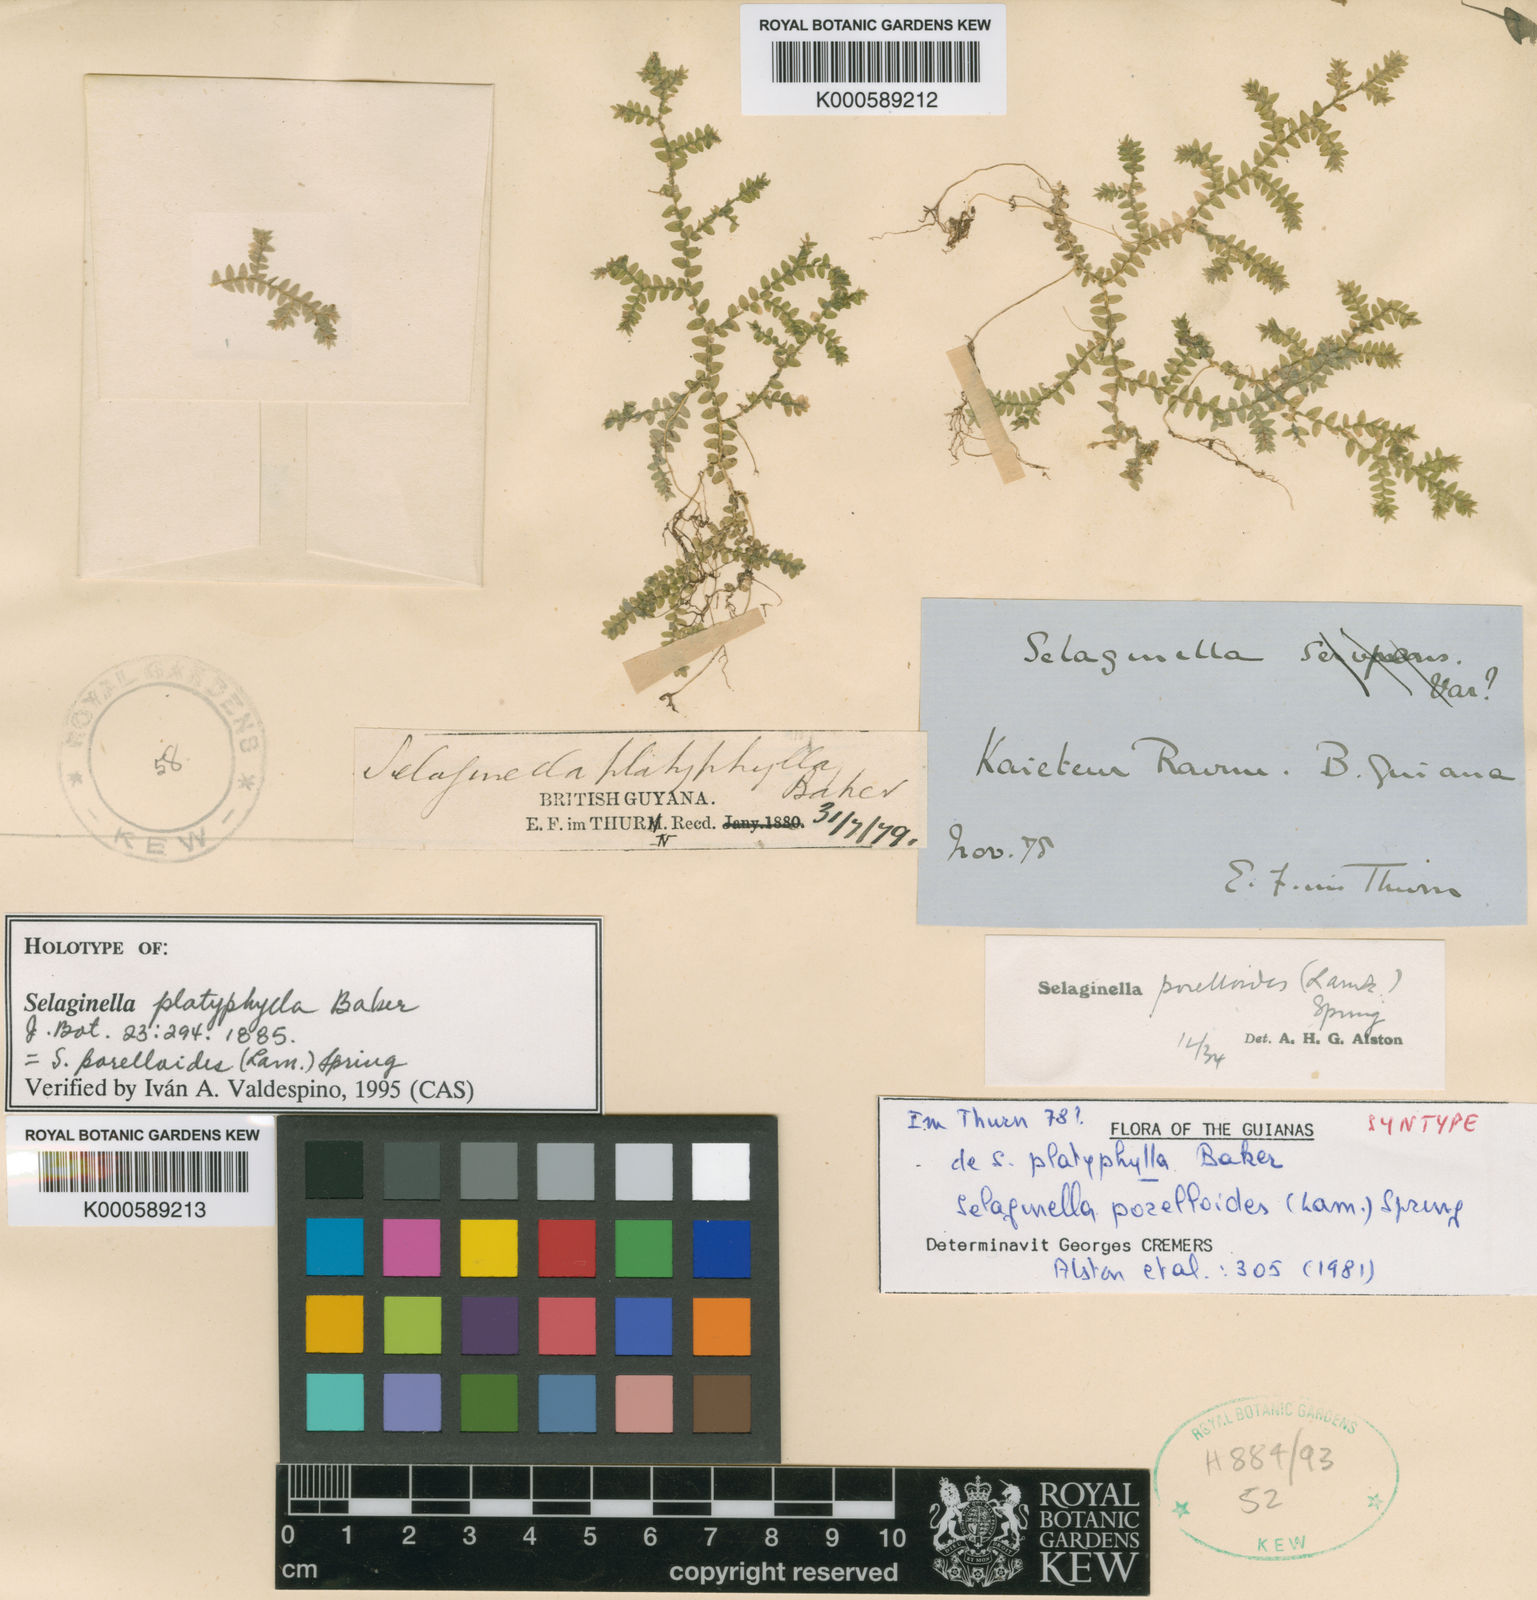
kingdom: Plantae
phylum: Tracheophyta
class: Lycopodiopsida
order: Selaginellales
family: Selaginellaceae
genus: Selaginella
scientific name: Selaginella porelloides
